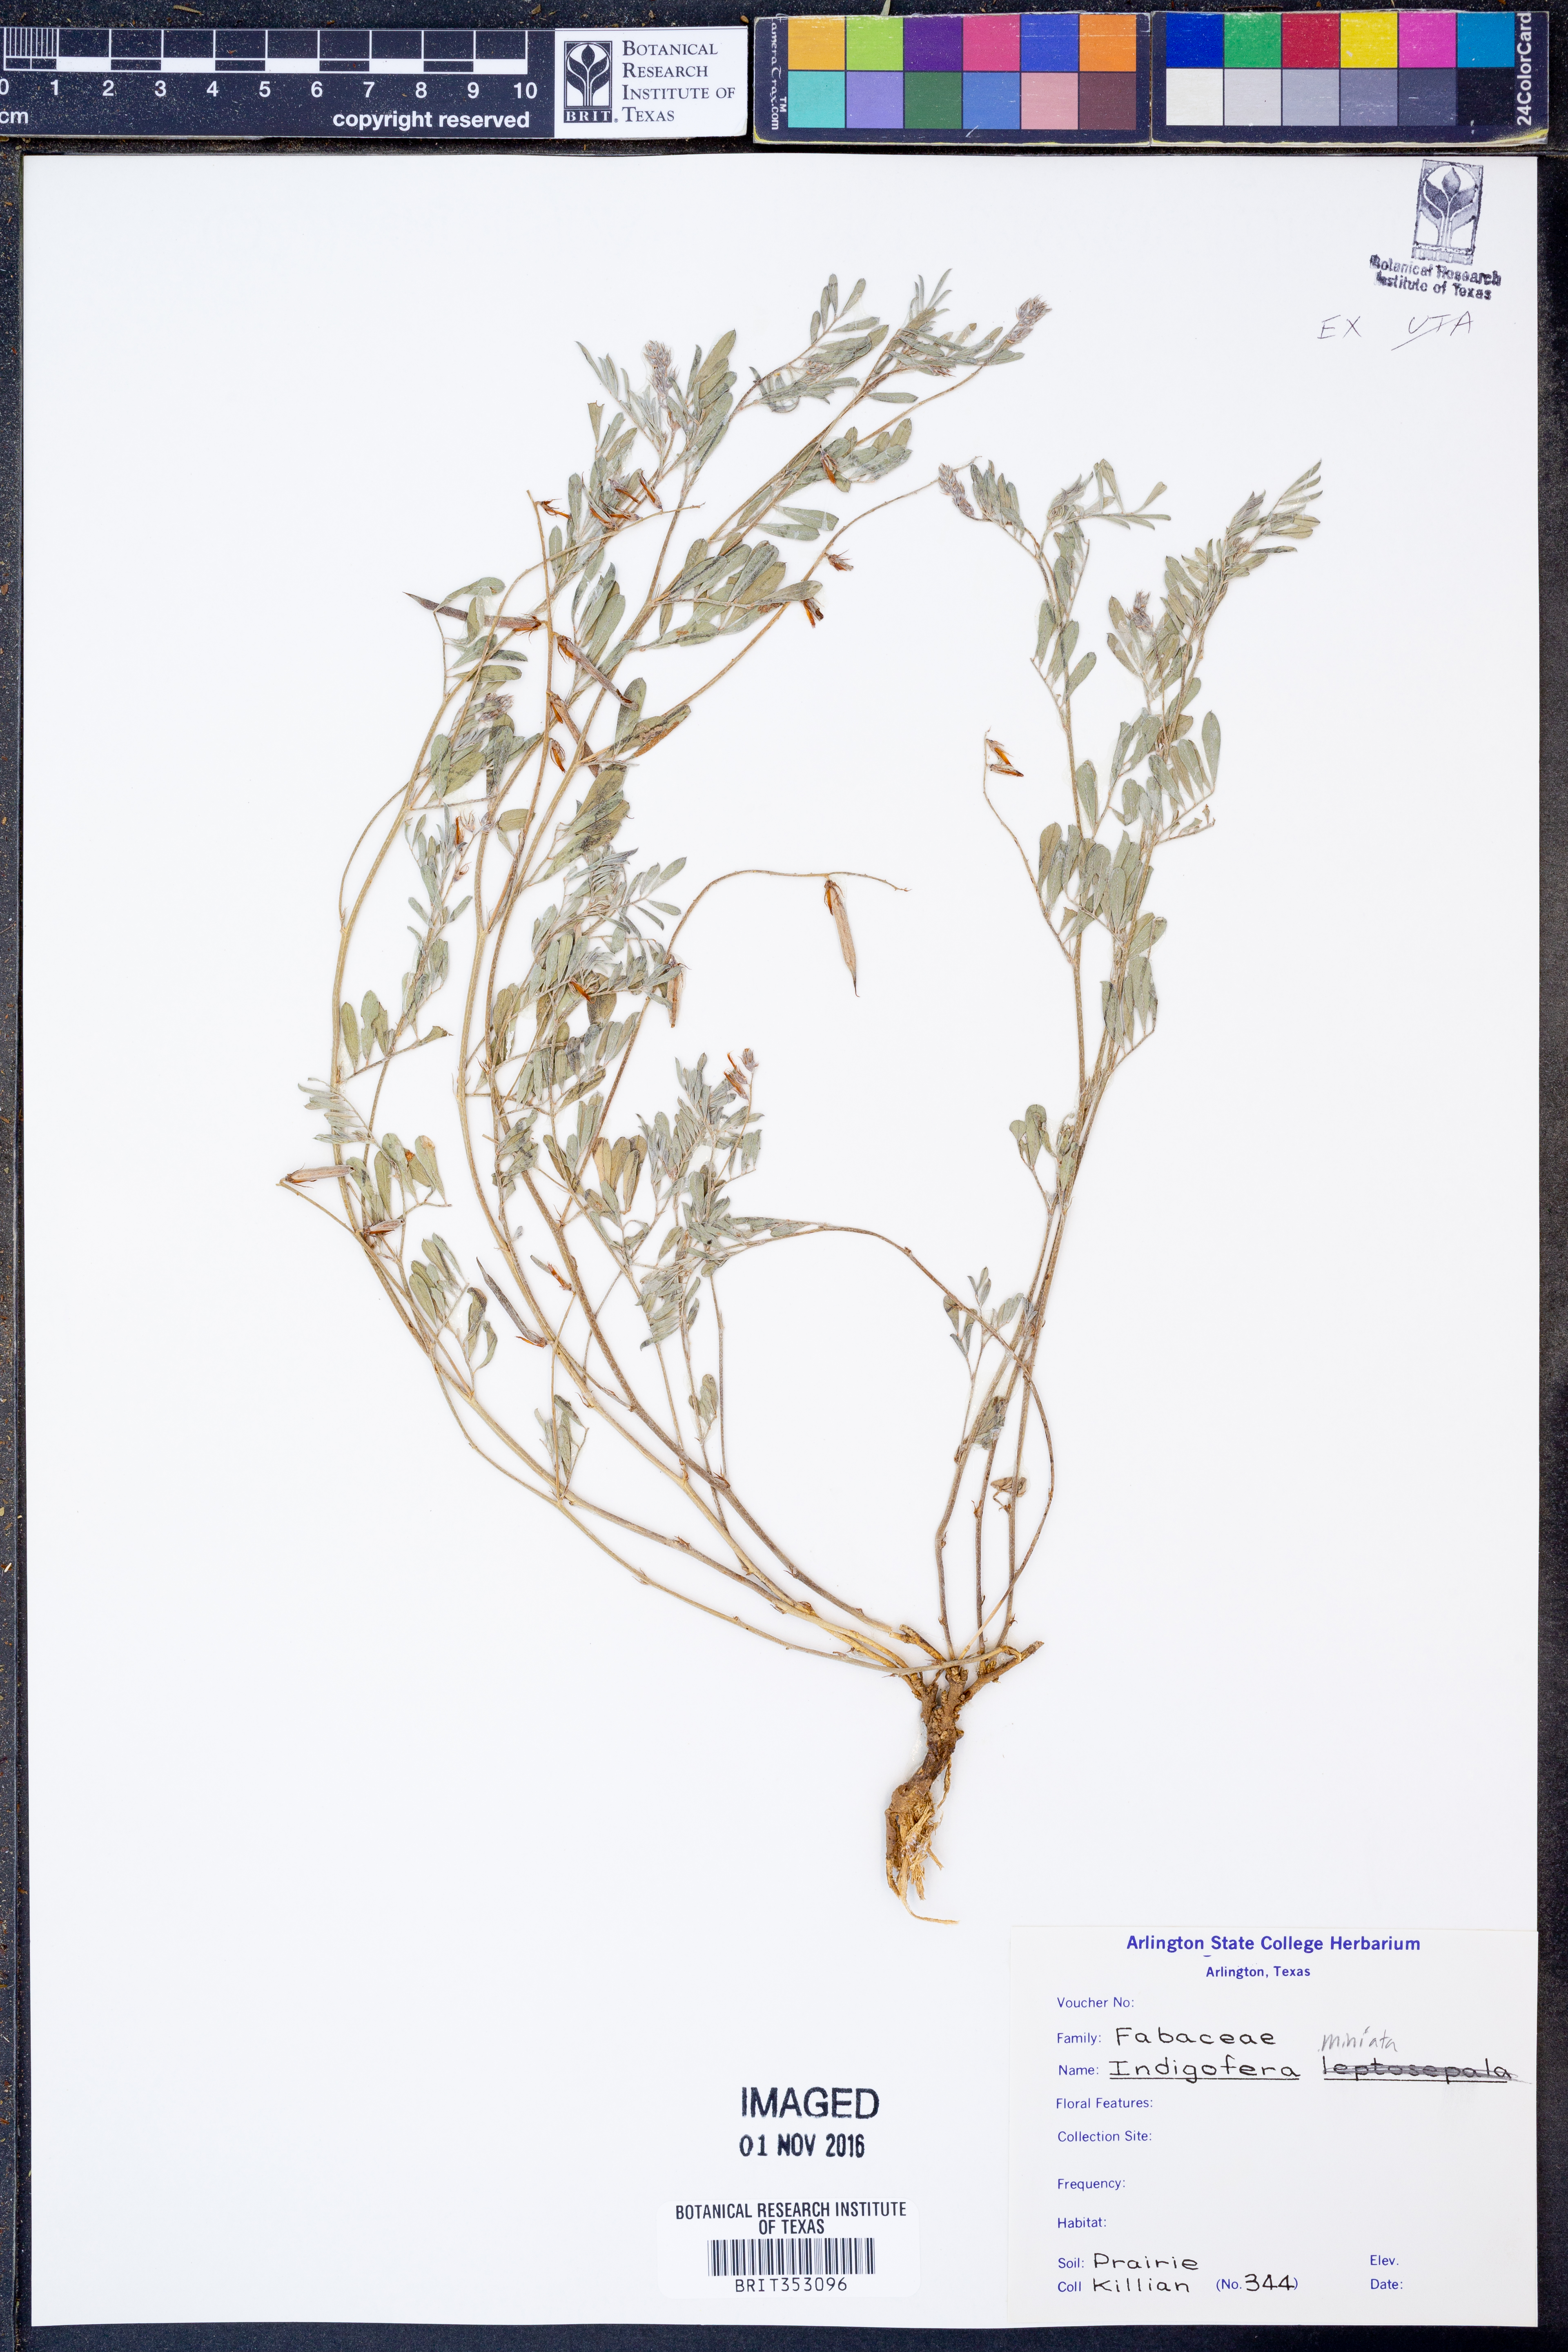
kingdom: Plantae
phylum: Tracheophyta
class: Magnoliopsida
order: Fabales
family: Fabaceae
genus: Indigofera
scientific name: Indigofera miniata
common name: Coast indigo
